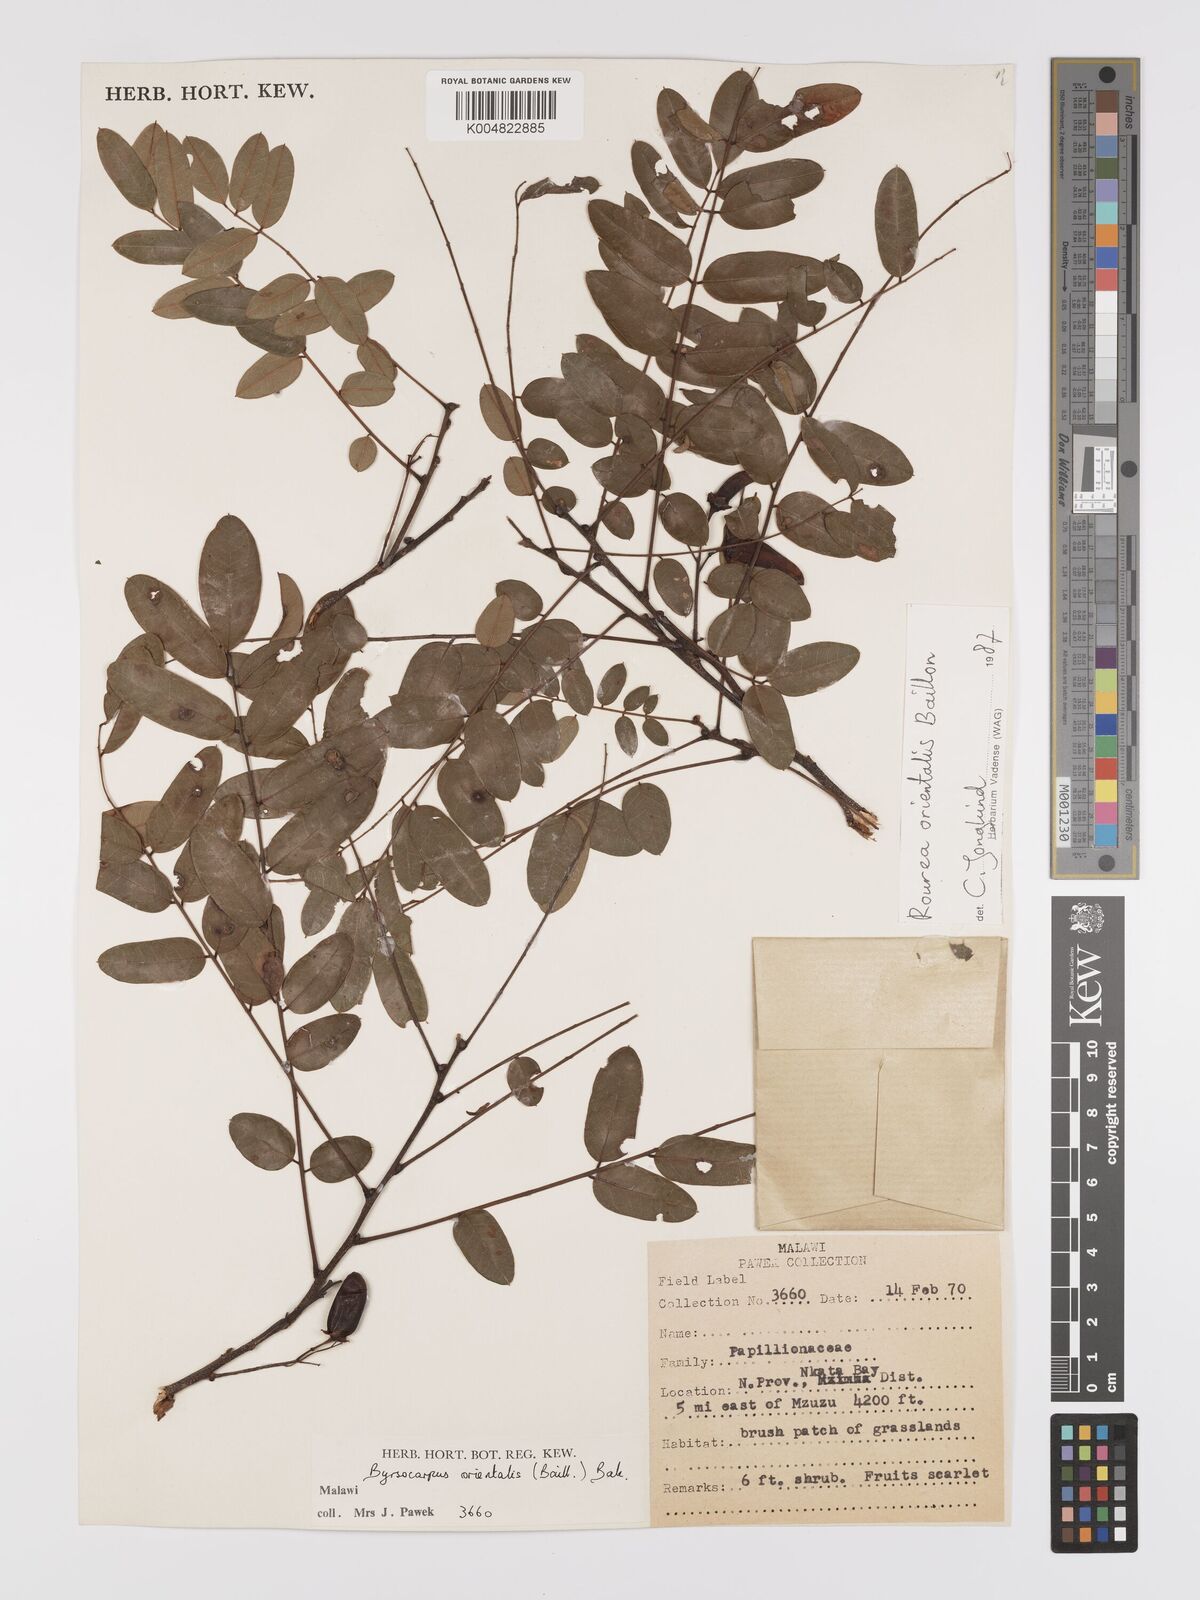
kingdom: Plantae
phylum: Tracheophyta
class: Magnoliopsida
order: Oxalidales
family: Connaraceae
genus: Rourea
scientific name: Rourea orientalis
